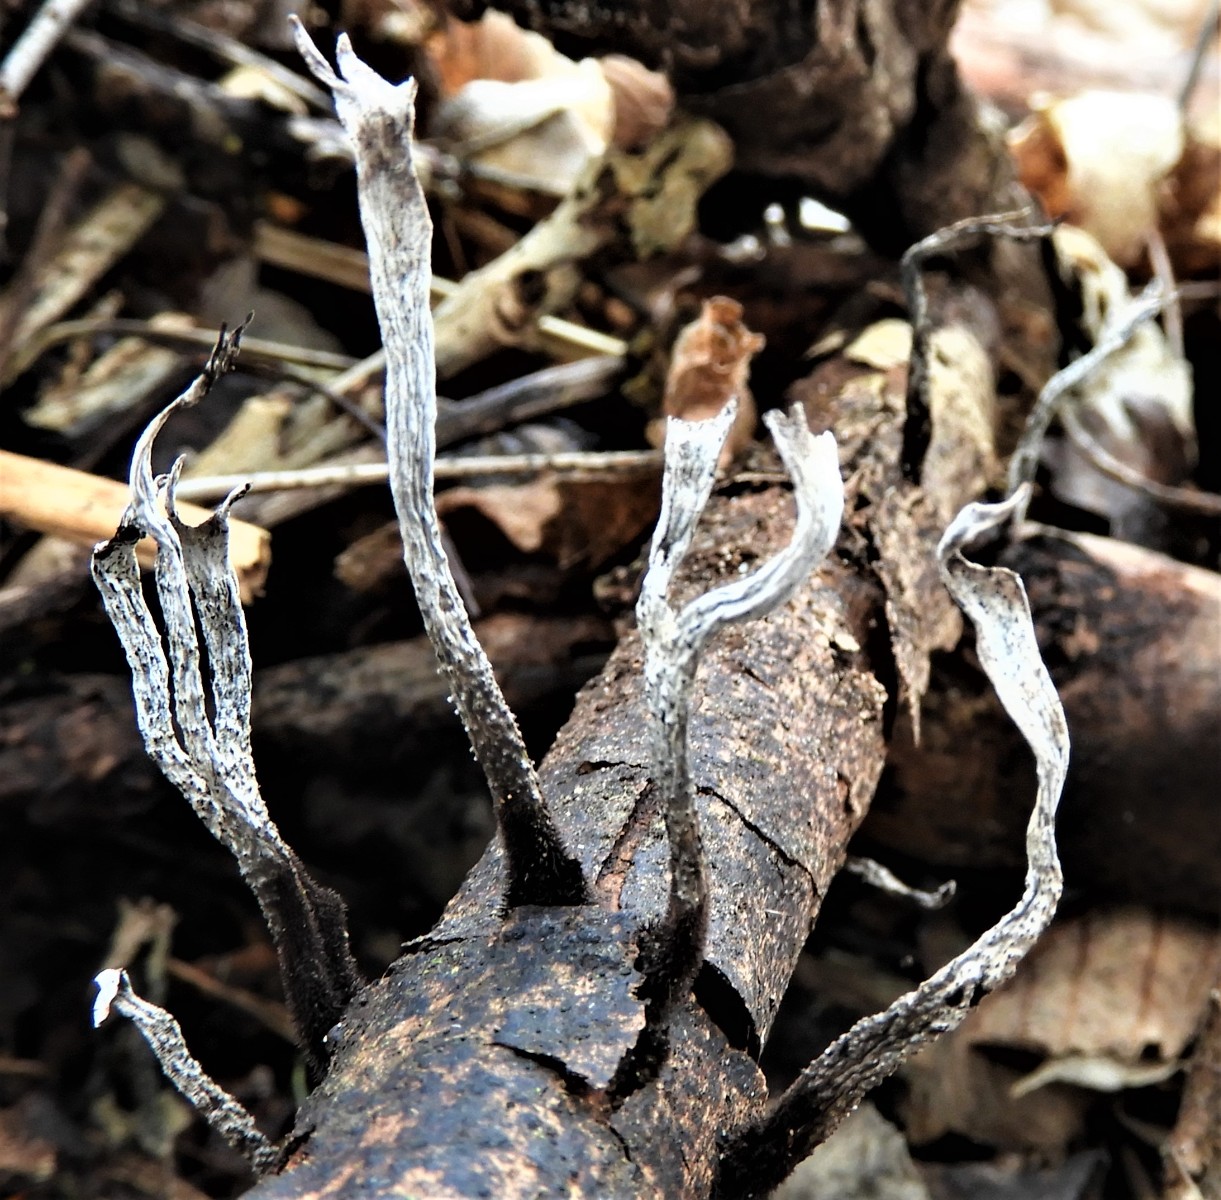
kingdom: Fungi
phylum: Ascomycota
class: Sordariomycetes
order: Xylariales
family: Xylariaceae
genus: Xylaria
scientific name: Xylaria hypoxylon
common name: grenet stødsvamp
